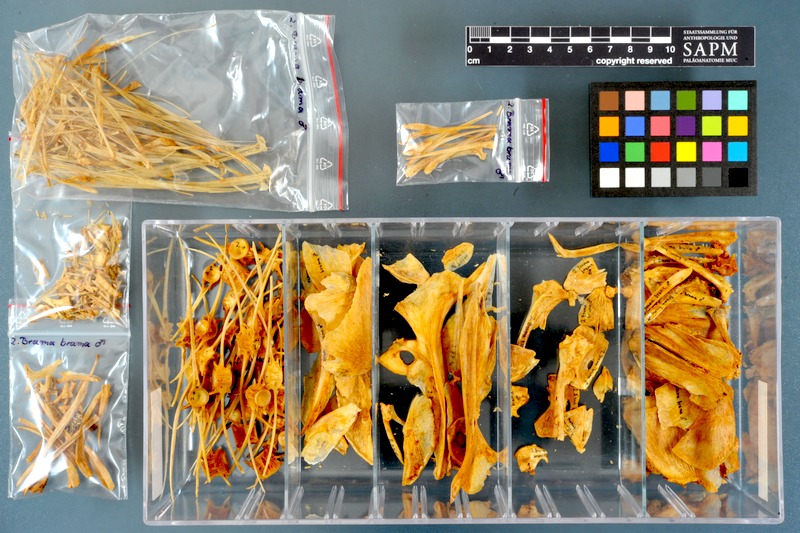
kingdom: Animalia
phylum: Chordata
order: Perciformes
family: Bramidae
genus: Brama
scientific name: Brama brama
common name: Ray's bream
